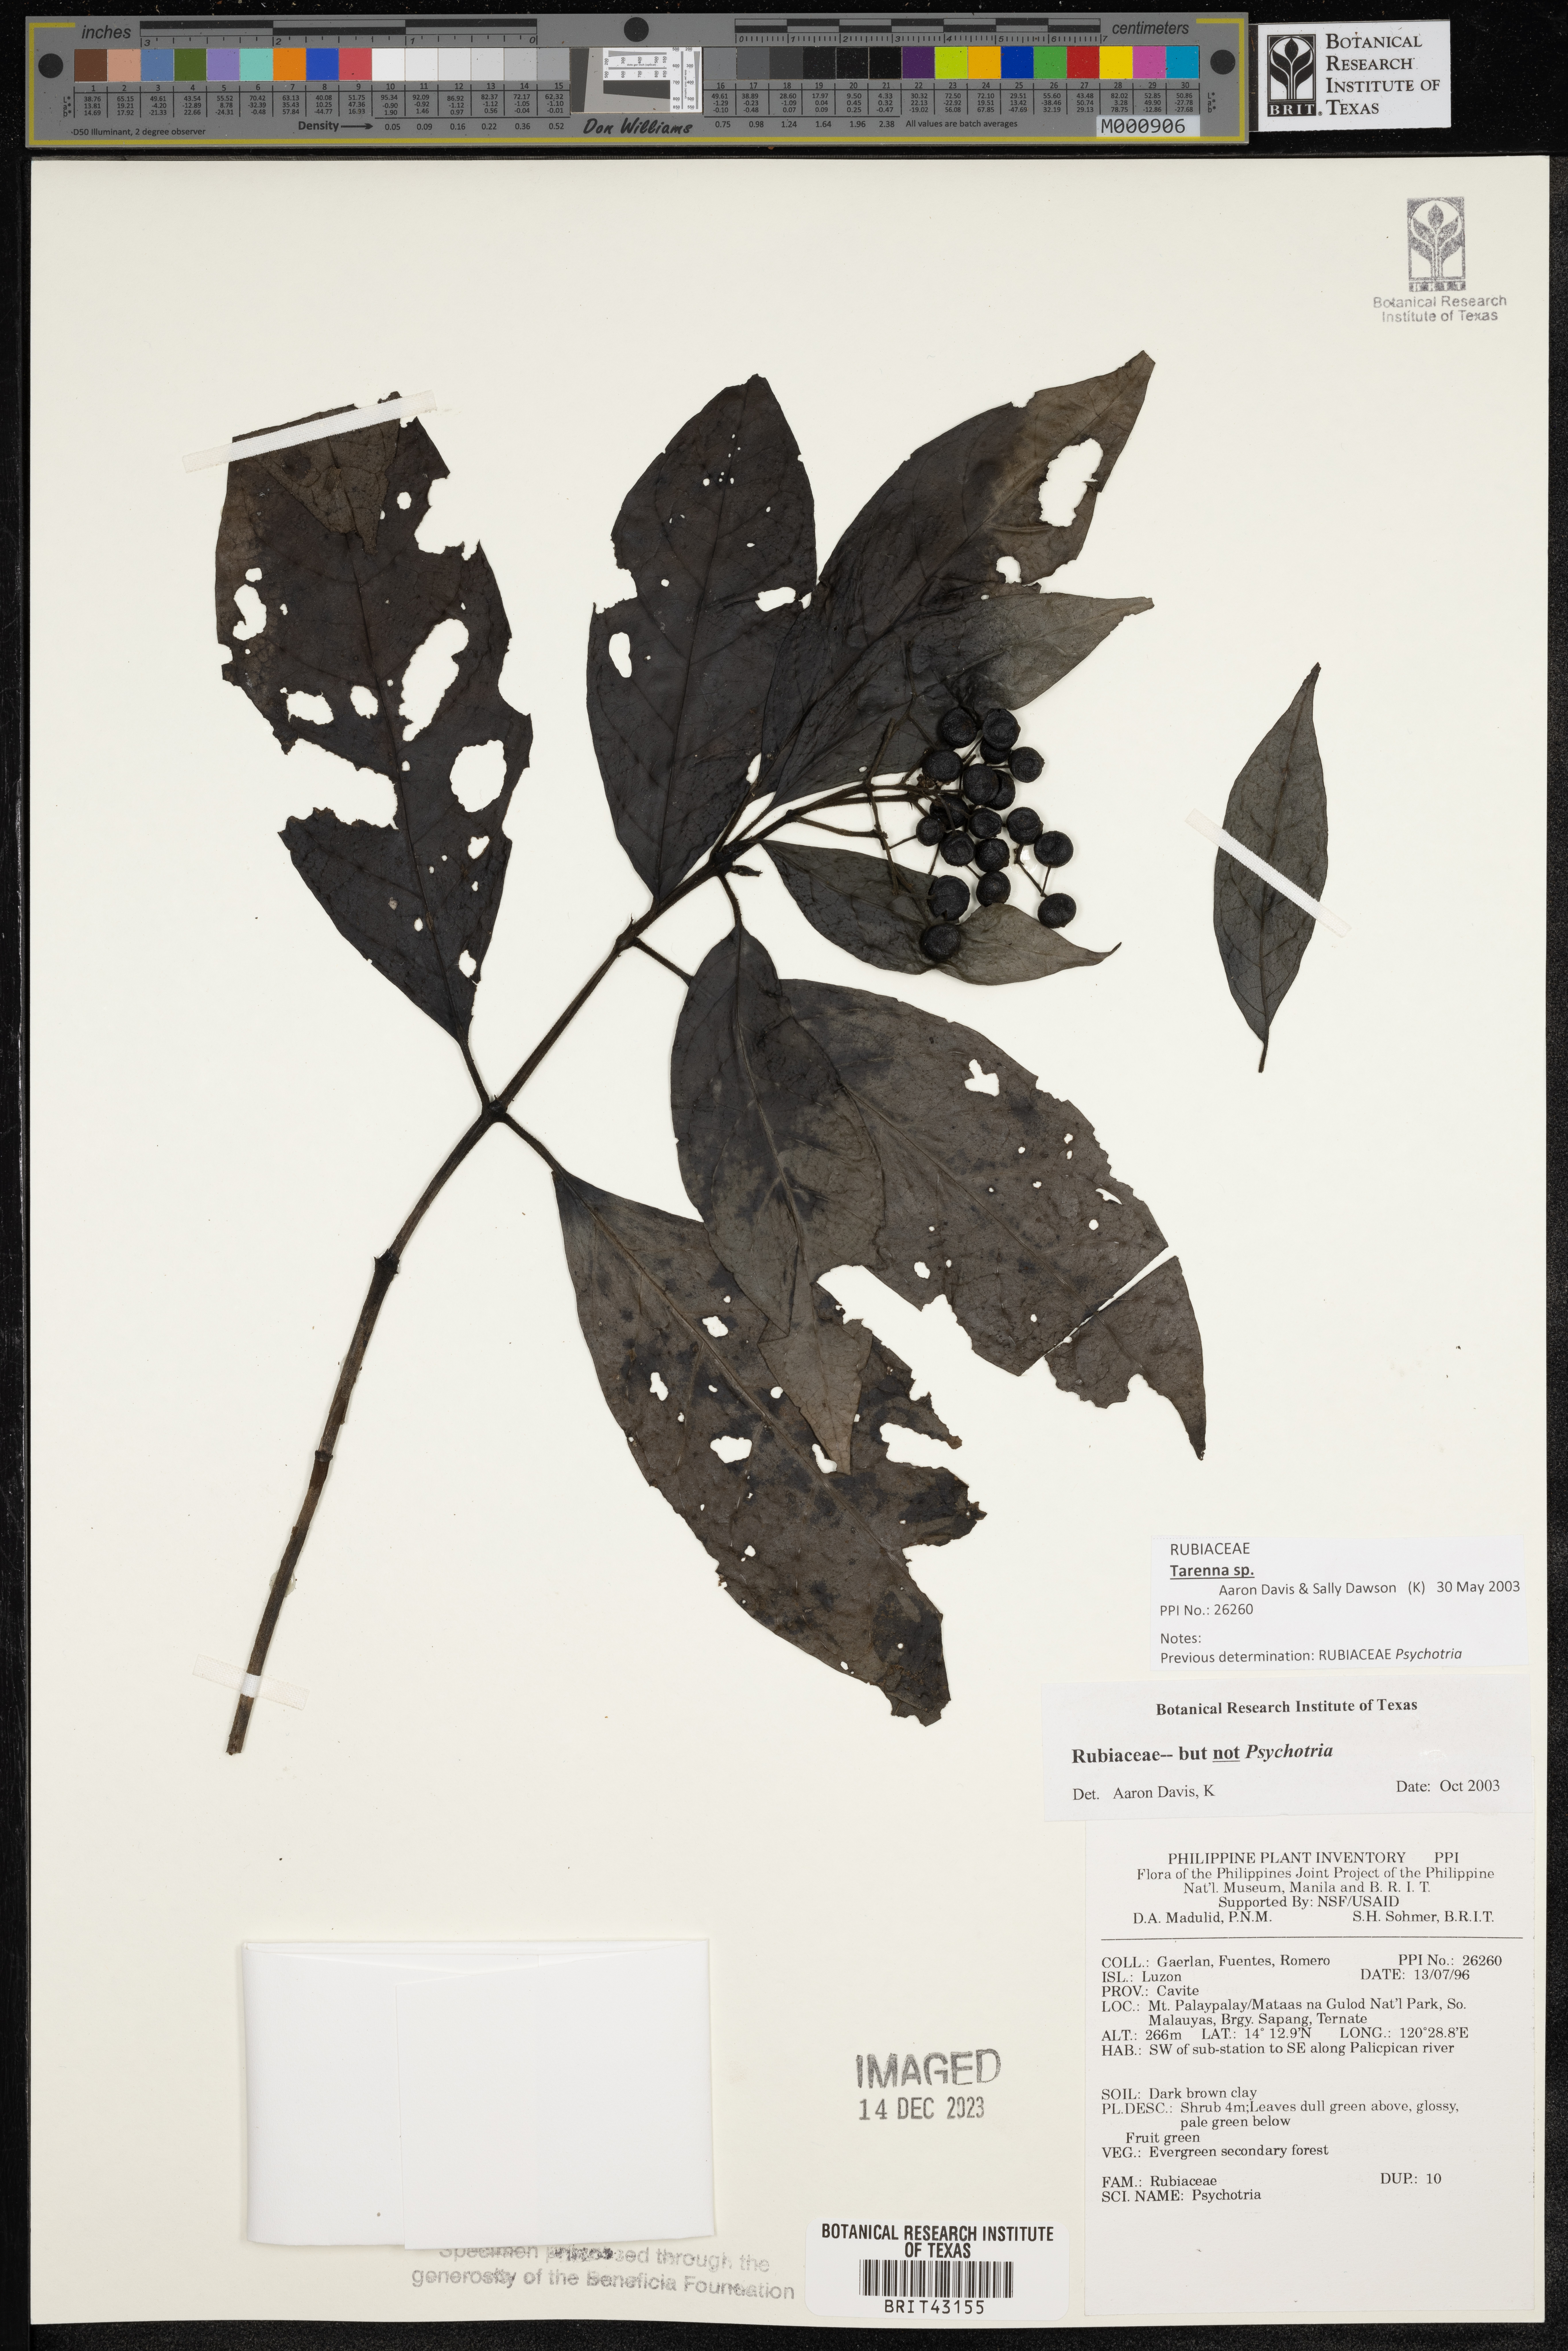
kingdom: Plantae
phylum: Tracheophyta
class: Magnoliopsida
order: Gentianales
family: Rubiaceae
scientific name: Rubiaceae
